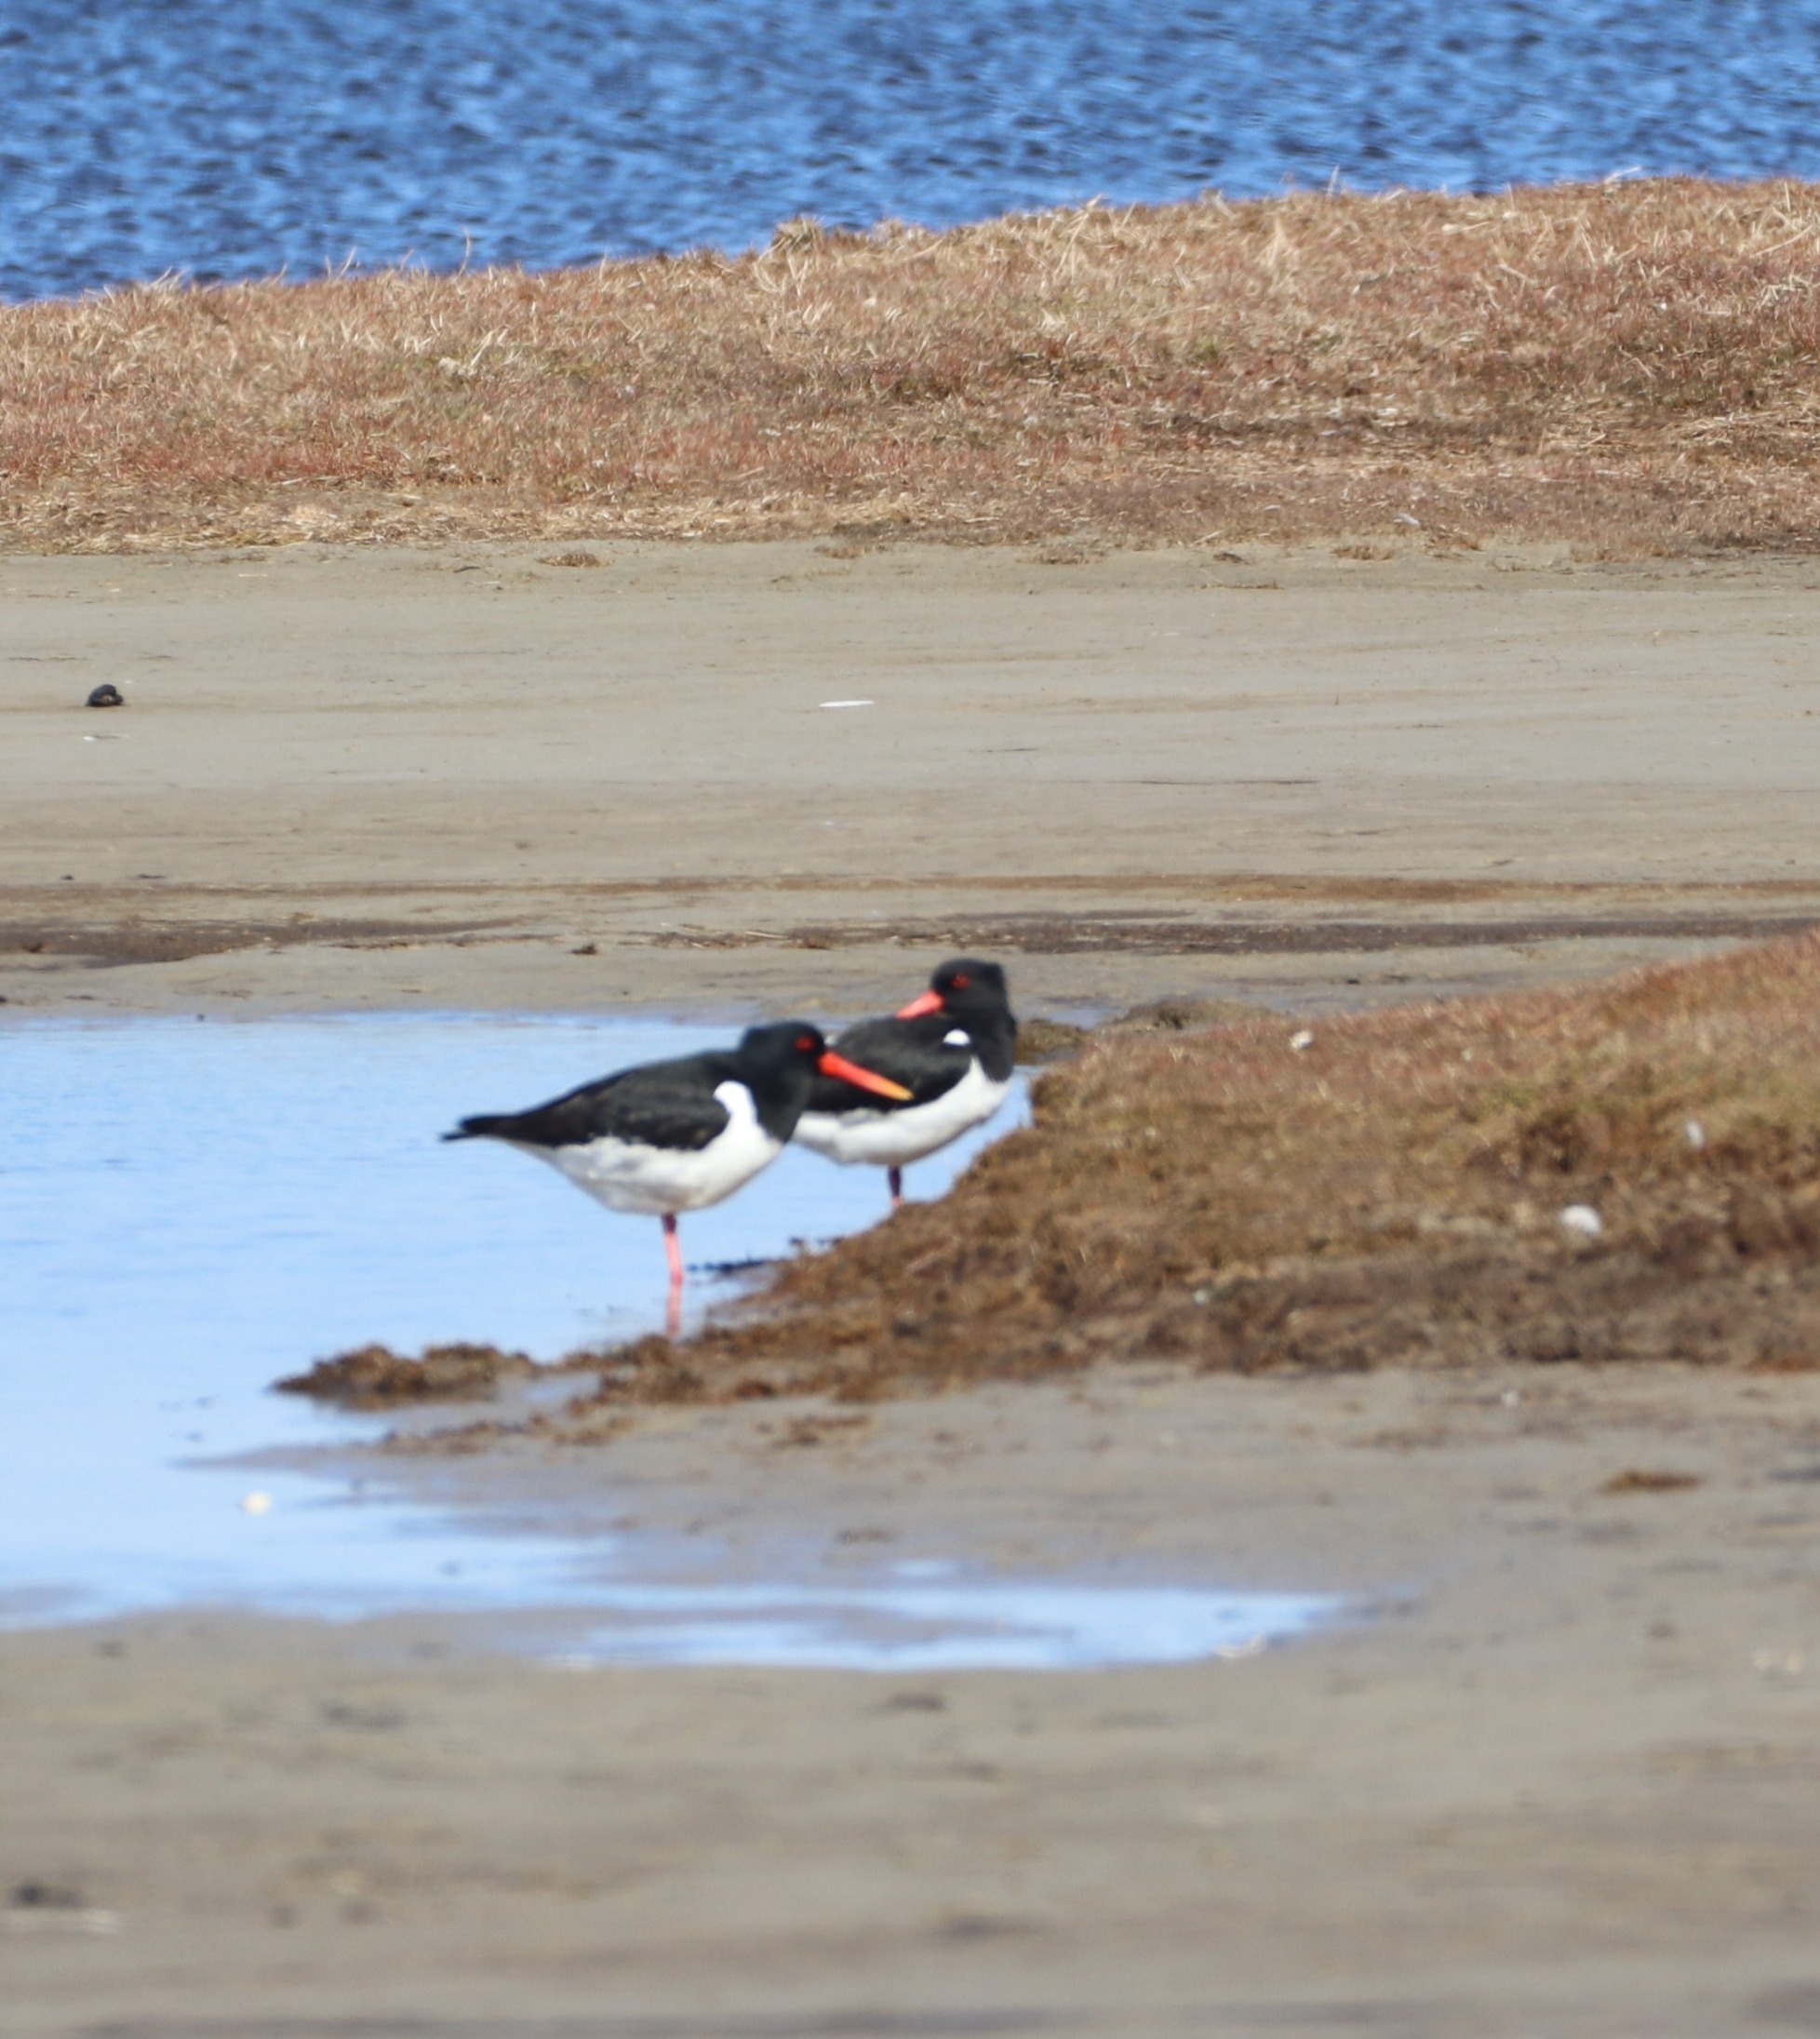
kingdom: Animalia
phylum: Chordata
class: Aves
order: Charadriiformes
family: Haematopodidae
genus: Haematopus
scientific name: Haematopus ostralegus
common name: Strandskade
